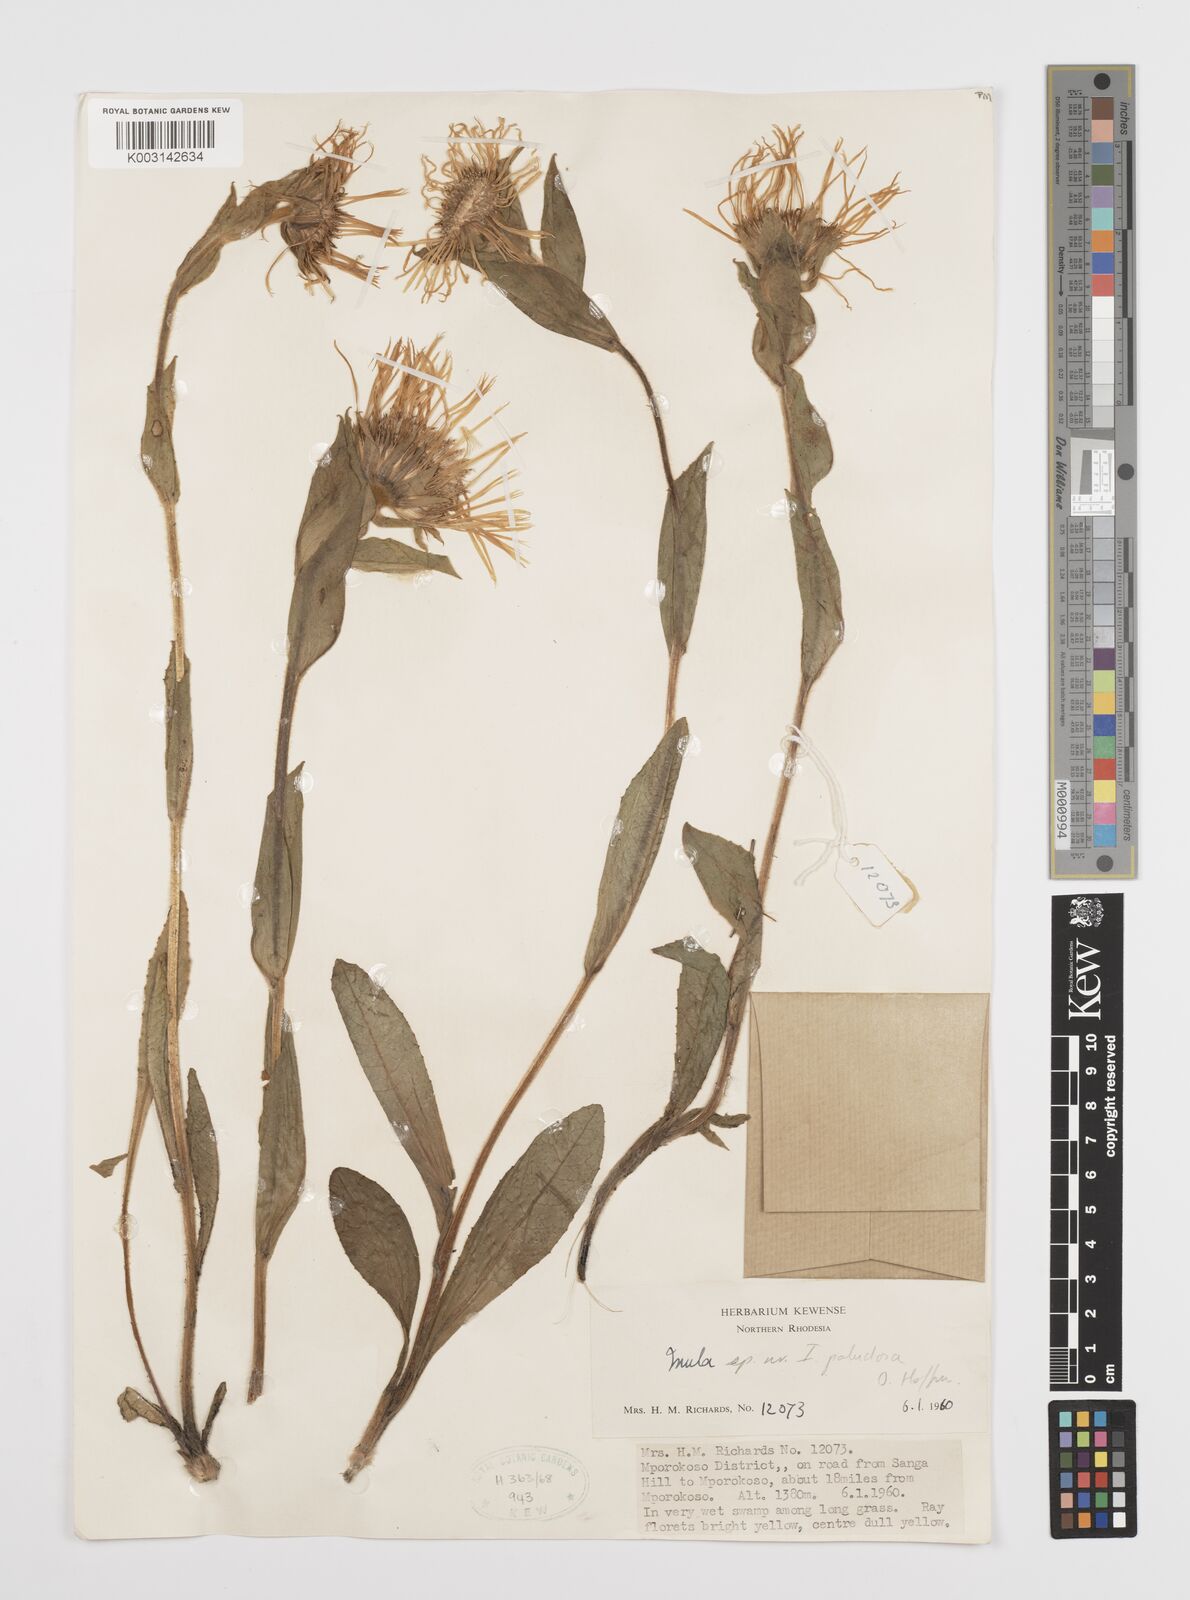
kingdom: Plantae
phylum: Tracheophyta
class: Magnoliopsida
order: Asterales
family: Asteraceae
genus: Inula
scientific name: Inula paludosa
